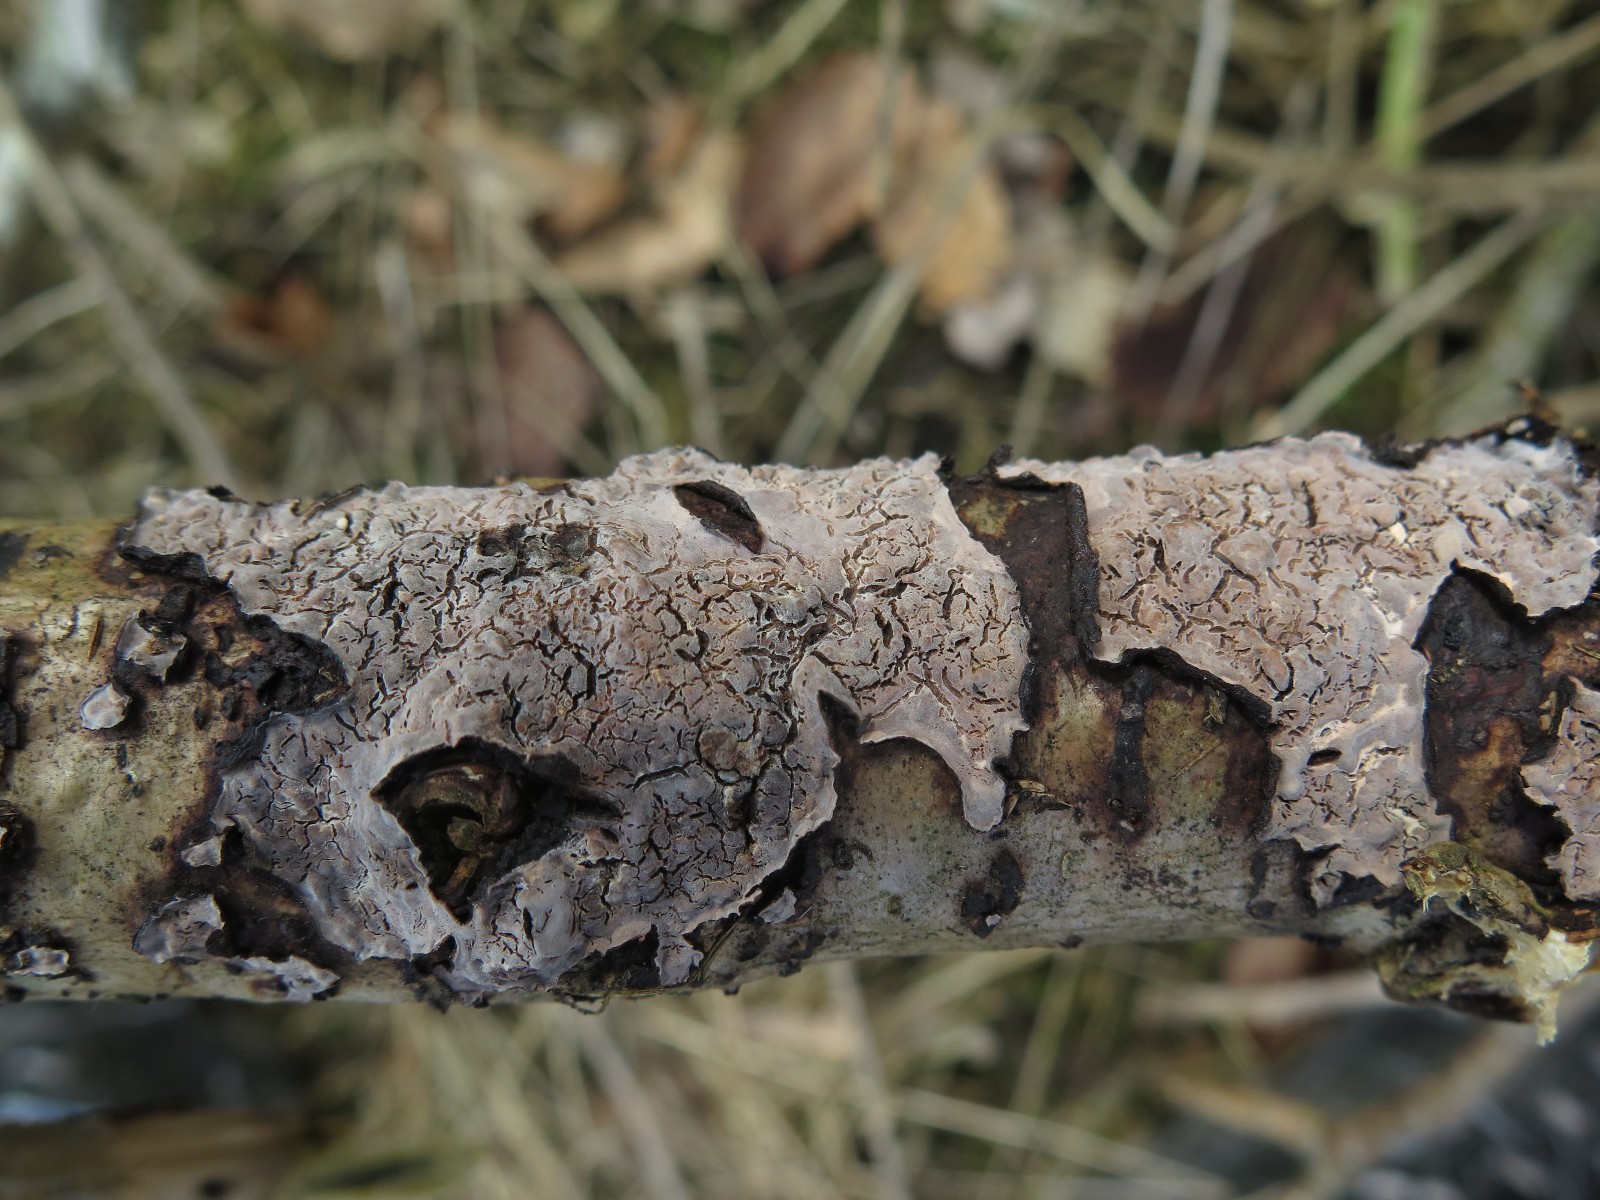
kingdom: Fungi
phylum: Basidiomycota
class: Agaricomycetes
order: Russulales
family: Peniophoraceae
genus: Peniophora
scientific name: Peniophora quercina
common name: ege-voksskind
